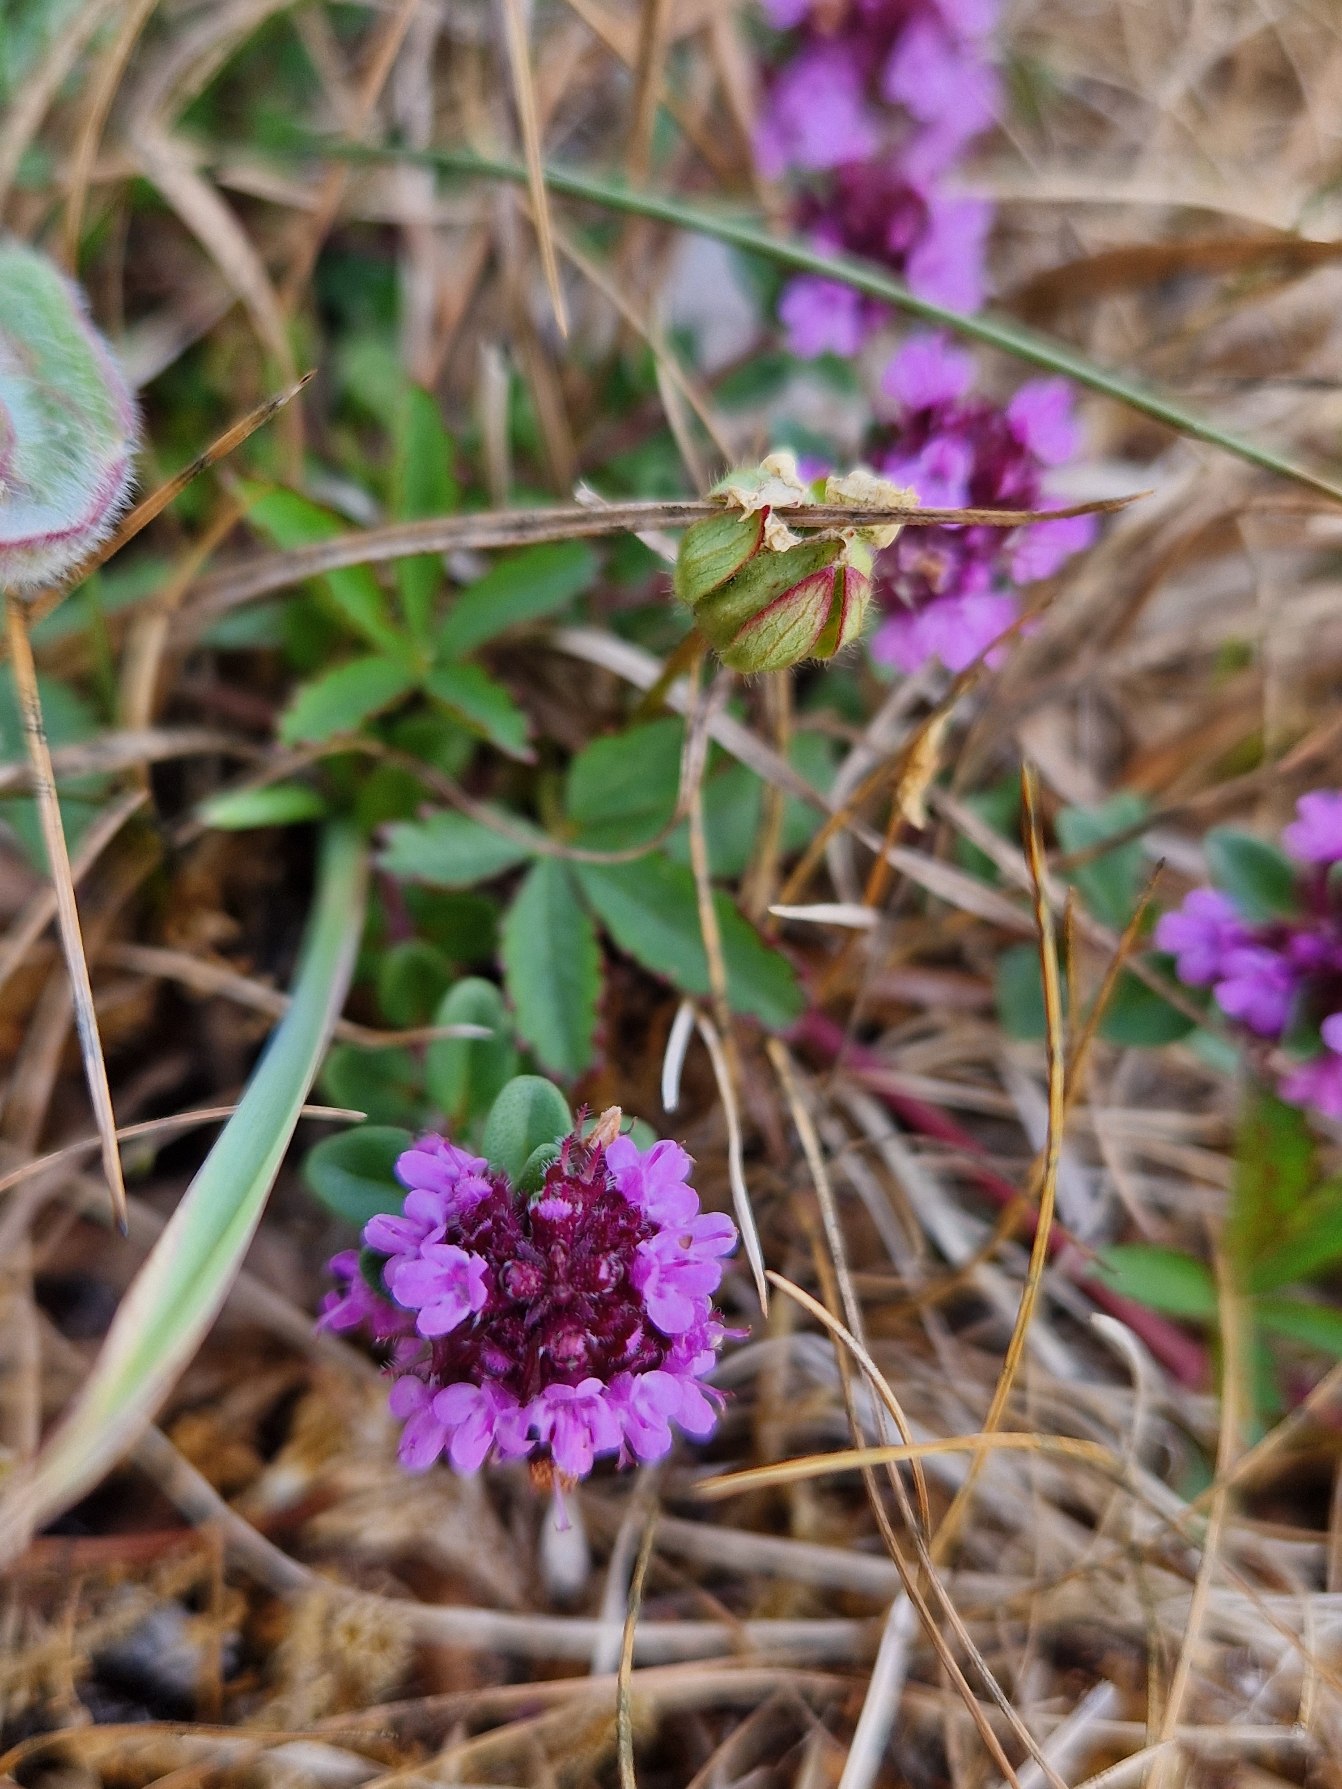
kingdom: Plantae
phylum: Tracheophyta
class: Magnoliopsida
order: Lamiales
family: Lamiaceae
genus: Thymus
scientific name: Thymus pulegioides
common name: Bredbladet timian
